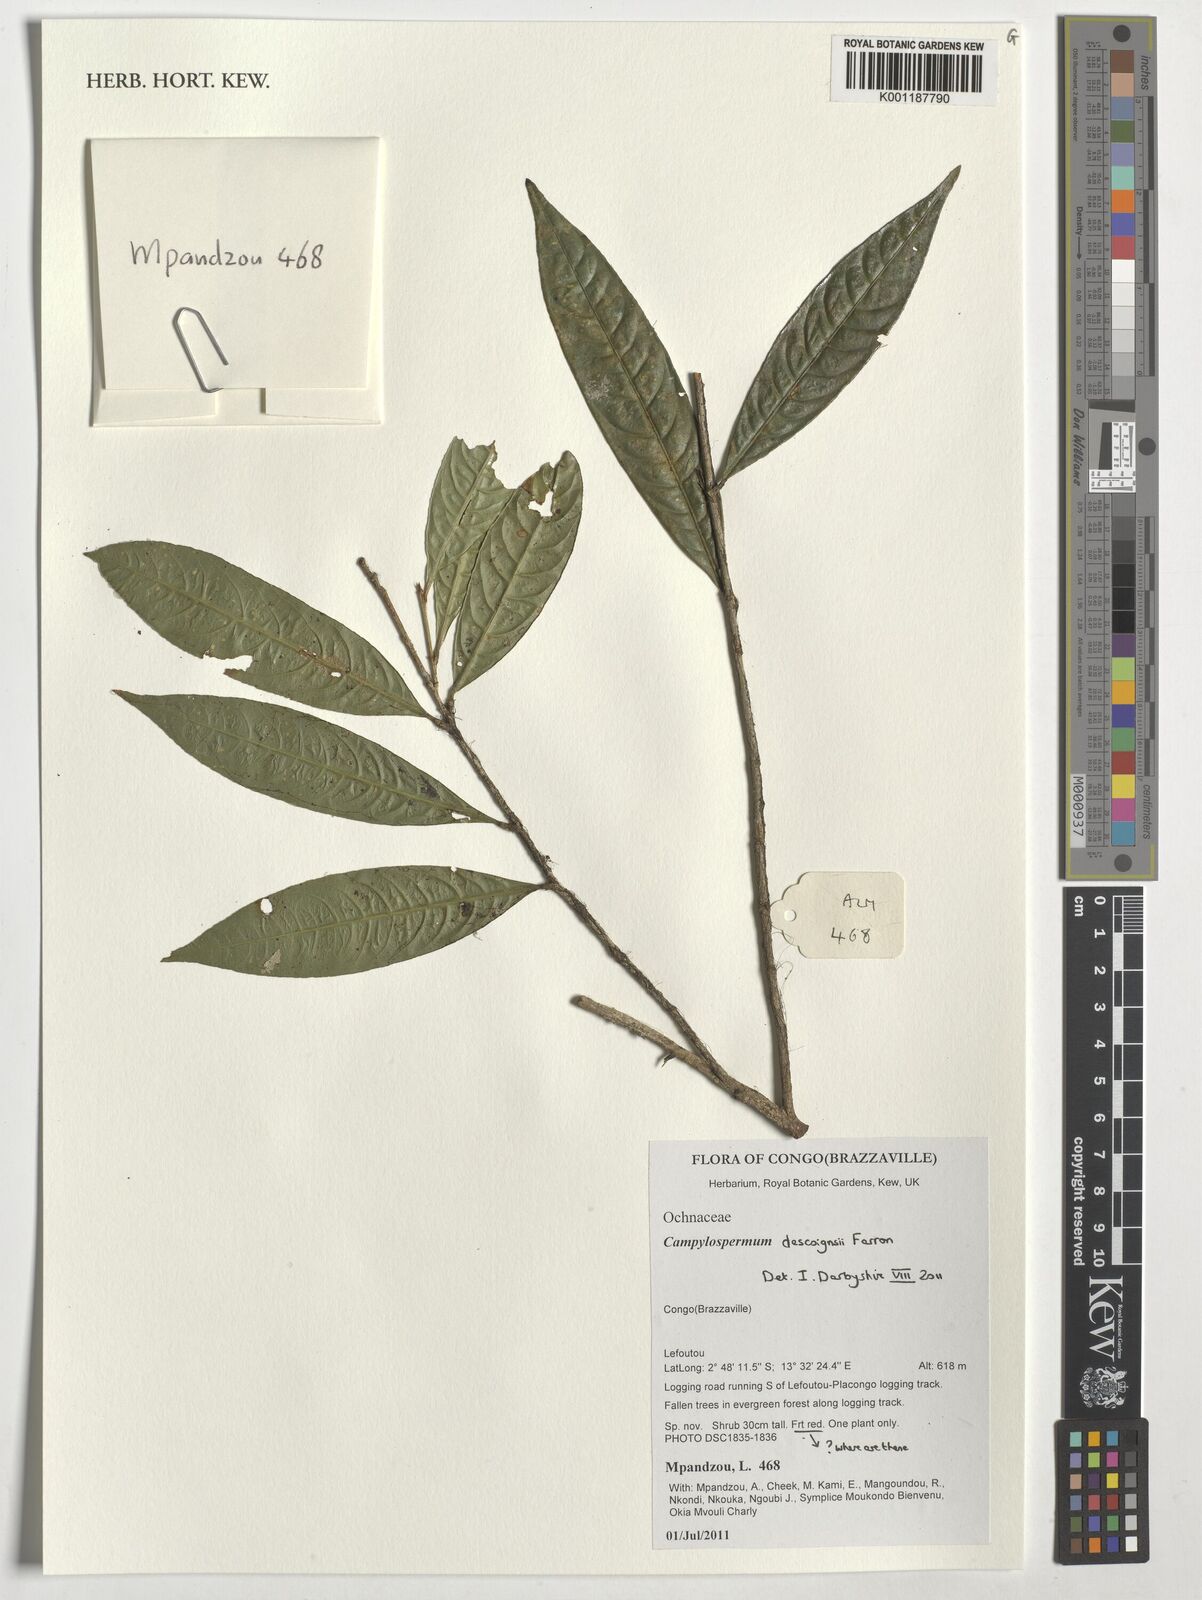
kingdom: Plantae
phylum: Tracheophyta
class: Magnoliopsida
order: Malpighiales
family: Ochnaceae
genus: Campylospermum
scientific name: Campylospermum descoingsii
